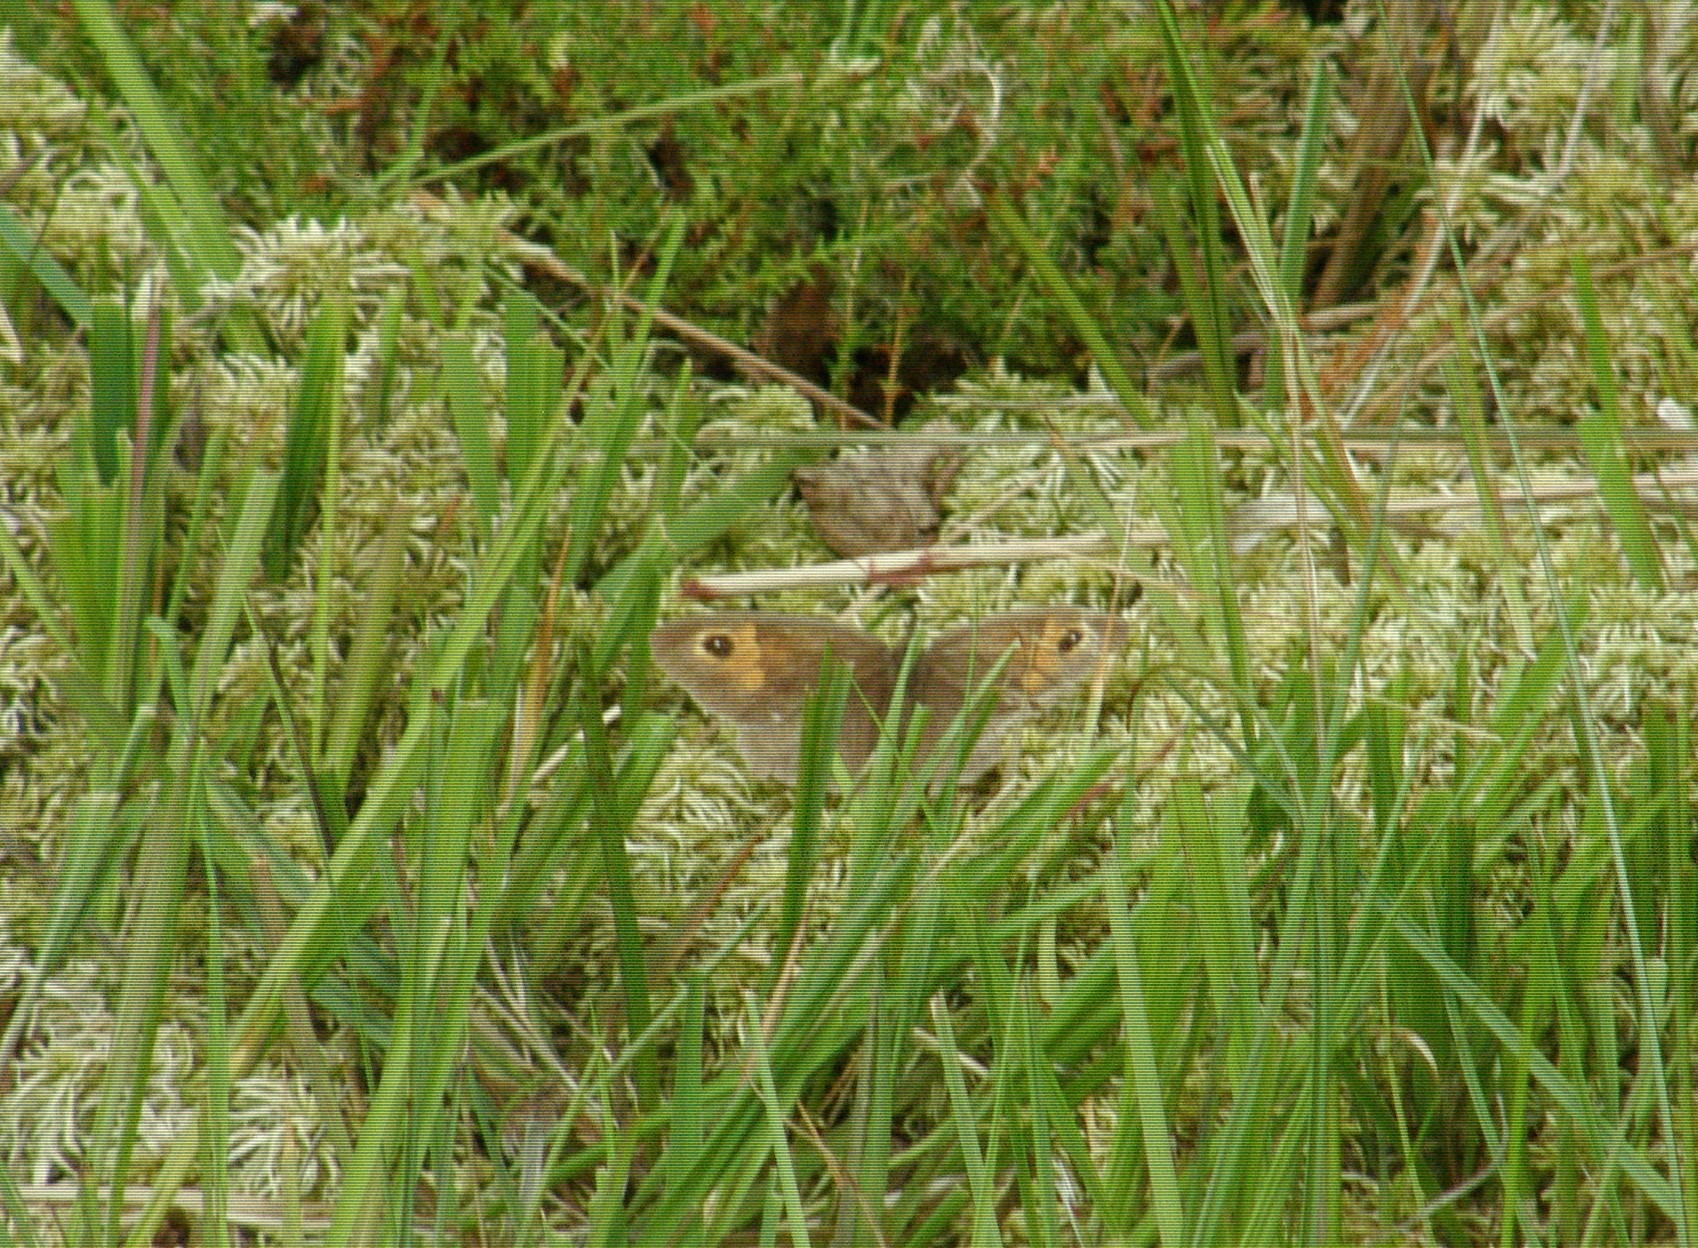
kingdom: Animalia
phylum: Arthropoda
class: Insecta
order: Lepidoptera
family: Nymphalidae
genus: Maniola
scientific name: Maniola jurtina
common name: Græsrandøje
